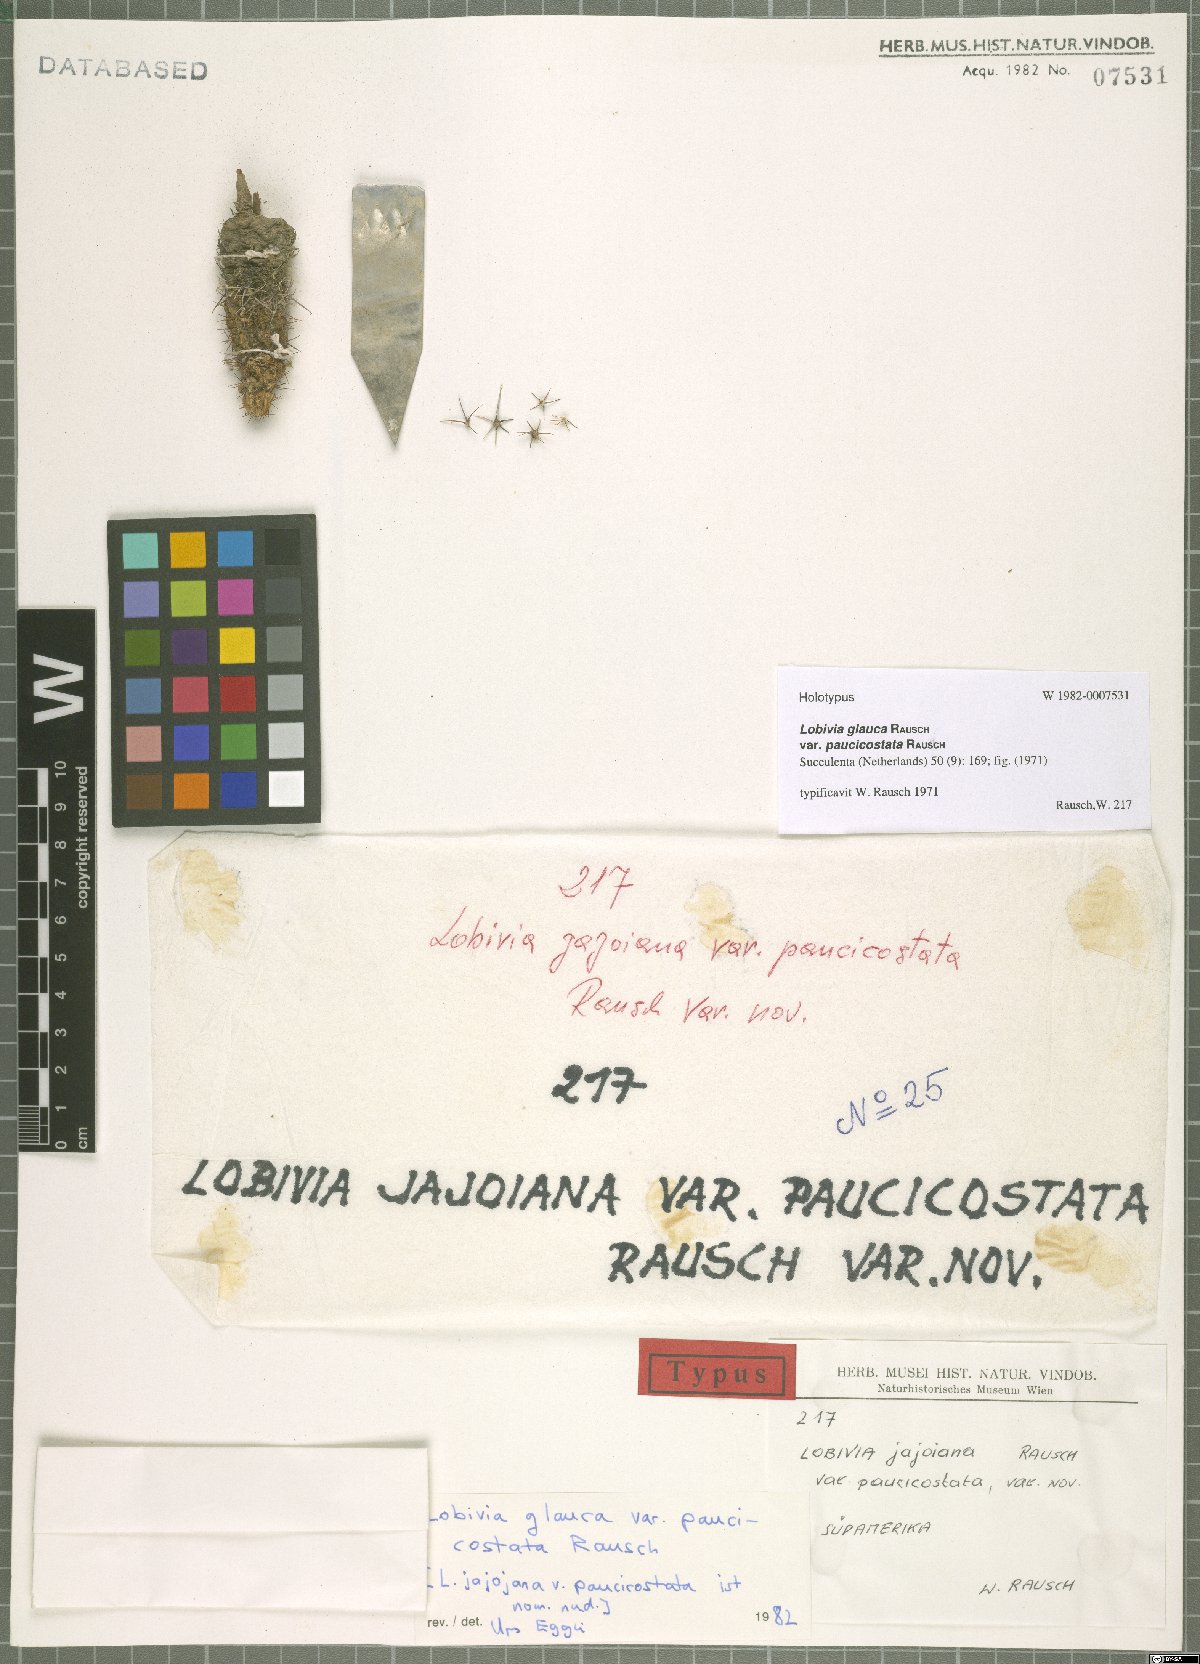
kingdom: Plantae
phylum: Tracheophyta
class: Magnoliopsida
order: Caryophyllales
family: Cactaceae
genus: Echinopsis
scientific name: Echinopsis jajoana
